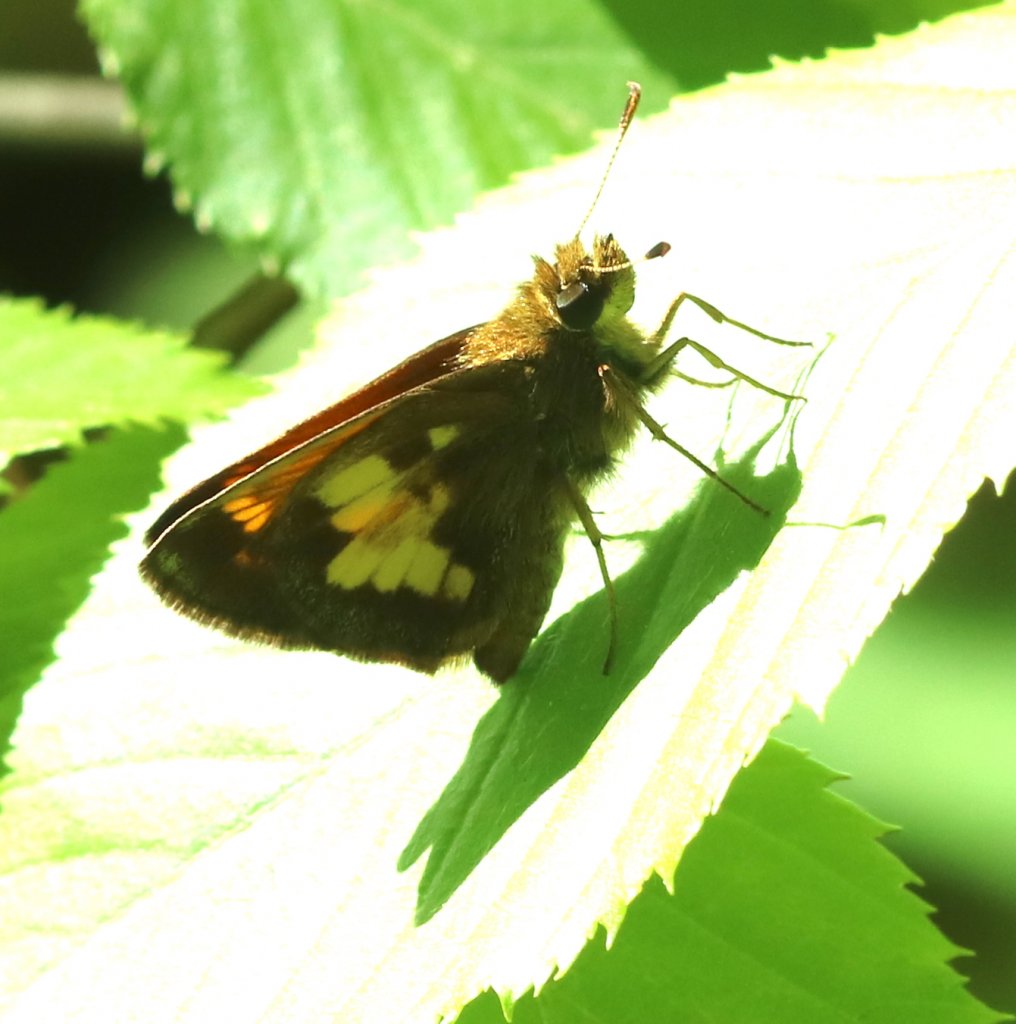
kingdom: Animalia
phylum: Arthropoda
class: Insecta
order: Lepidoptera
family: Hesperiidae
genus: Lon
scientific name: Lon hobomok
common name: Hobomok Skipper
